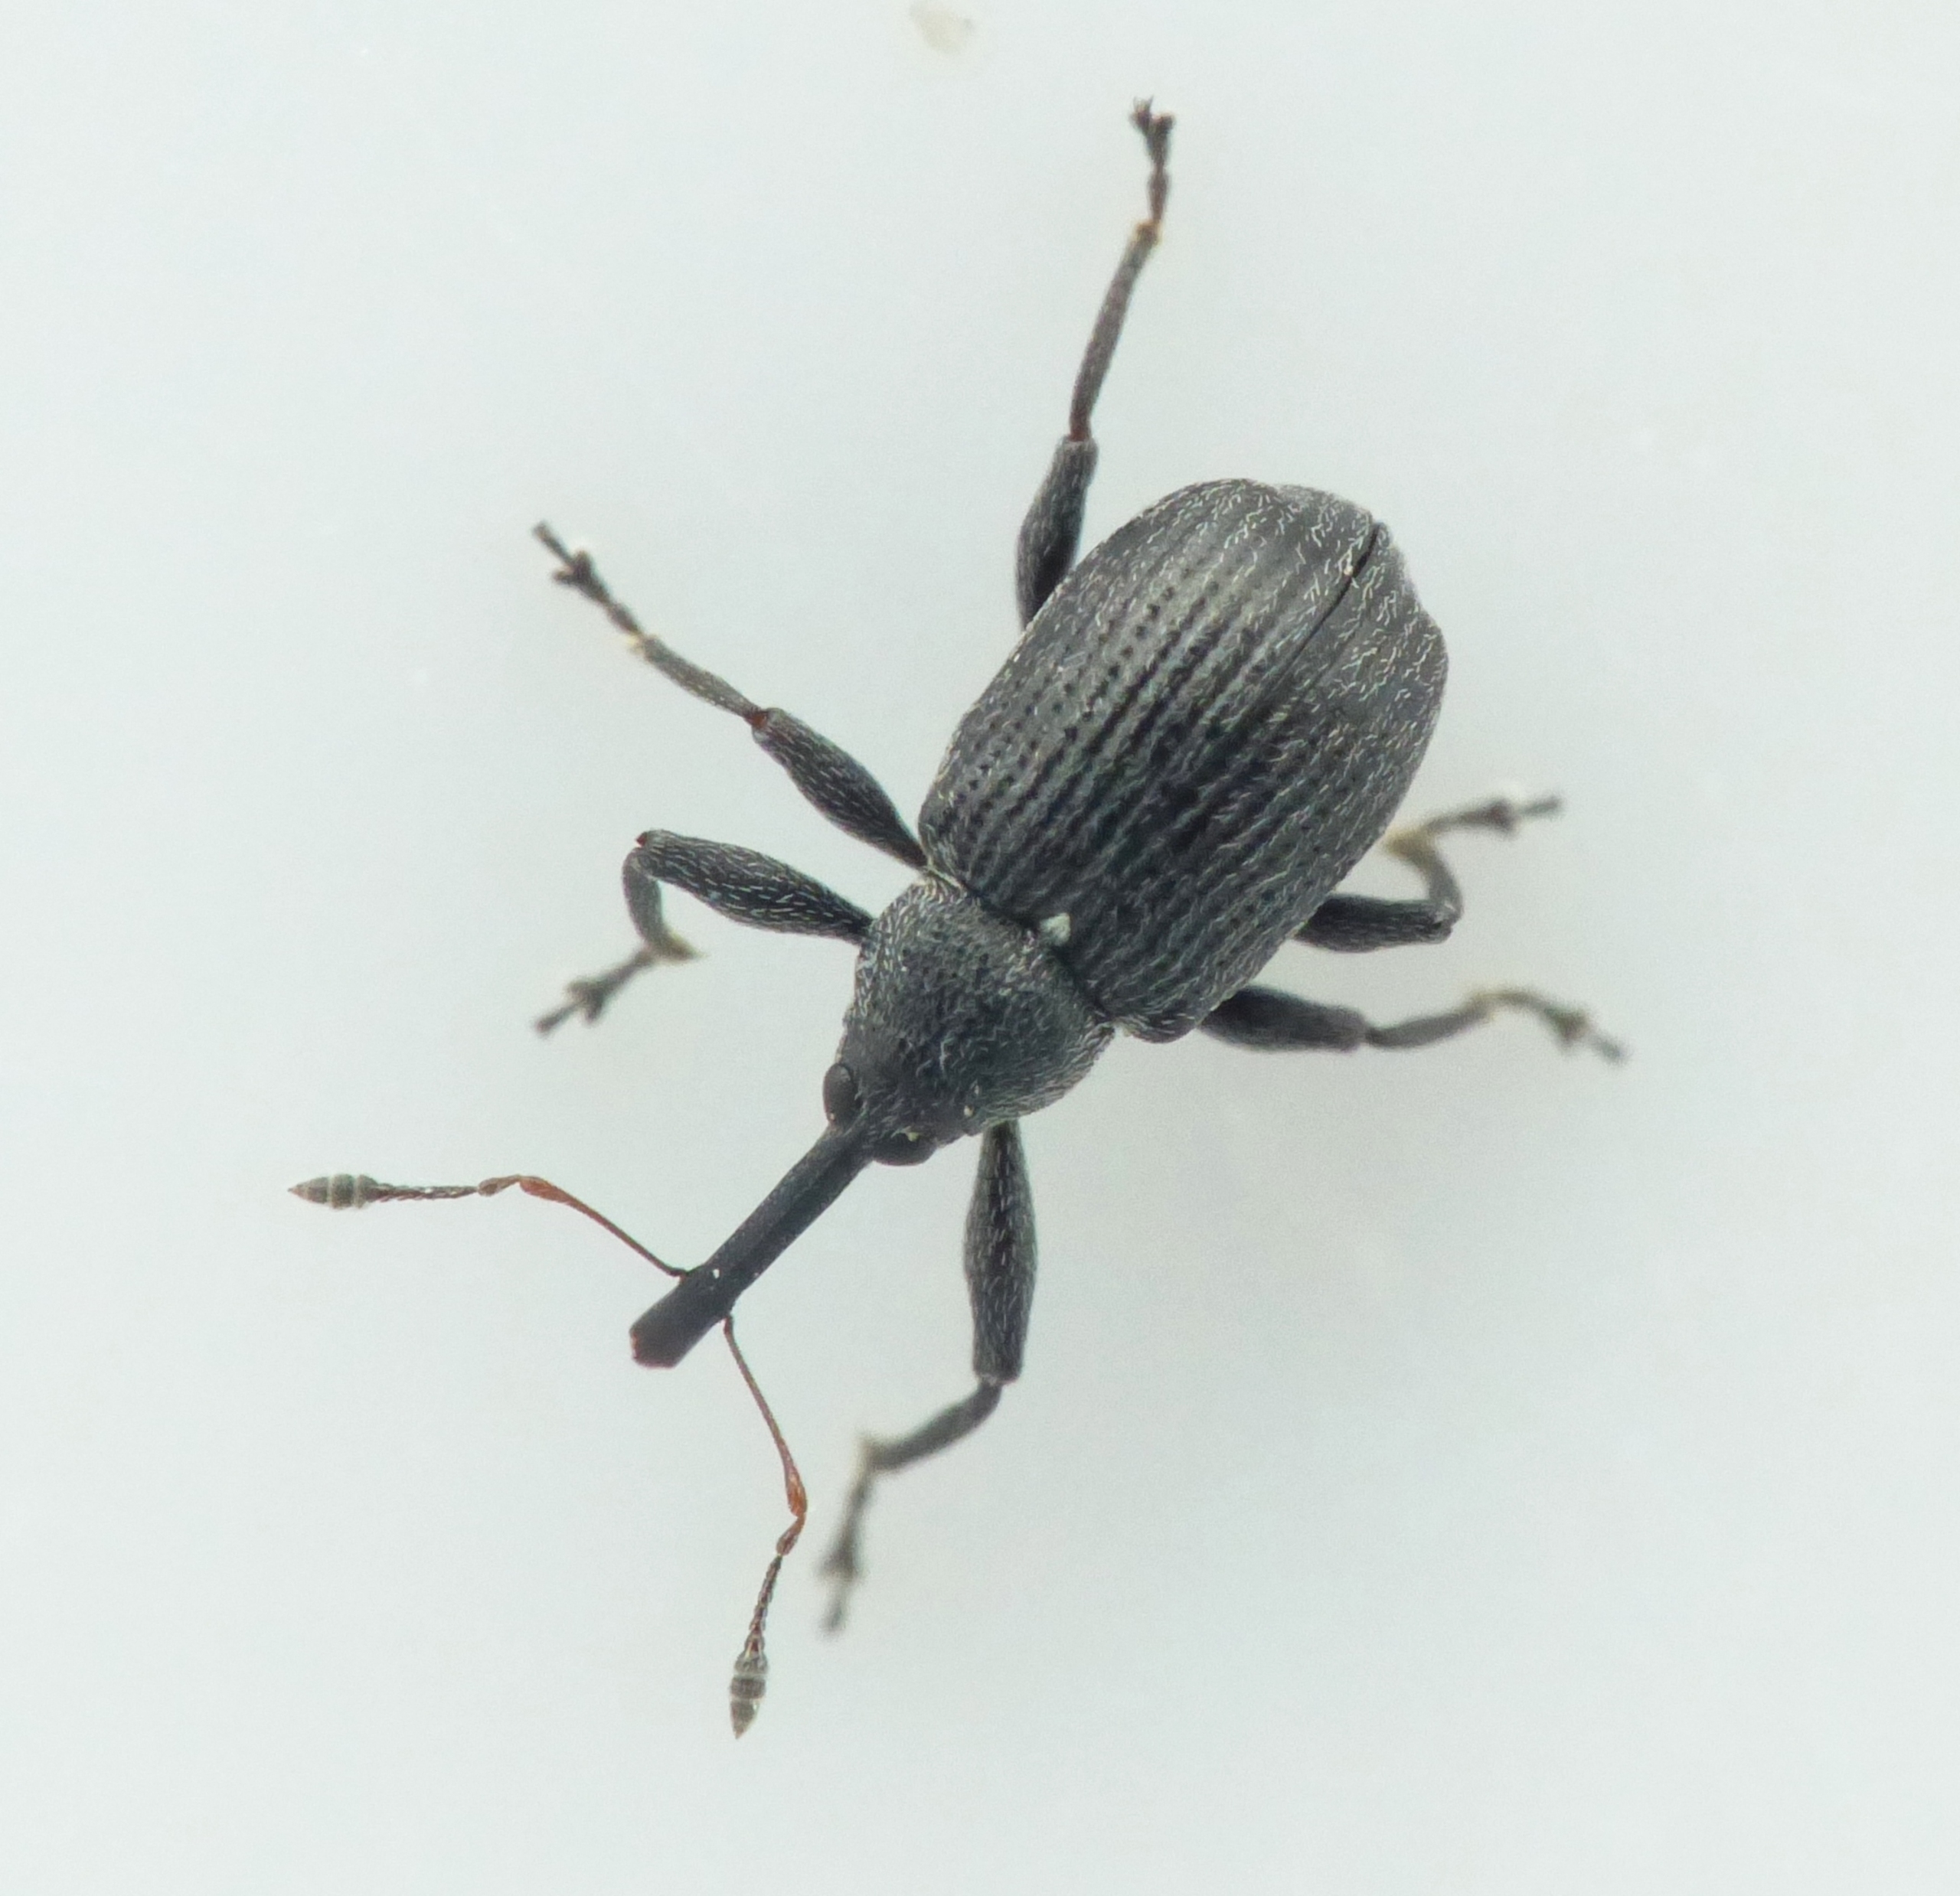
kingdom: Animalia
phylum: Arthropoda
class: Insecta
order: Coleoptera
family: Curculionidae
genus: Anthonomus
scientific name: Anthonomus rubi
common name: Hindbærsnudebille
